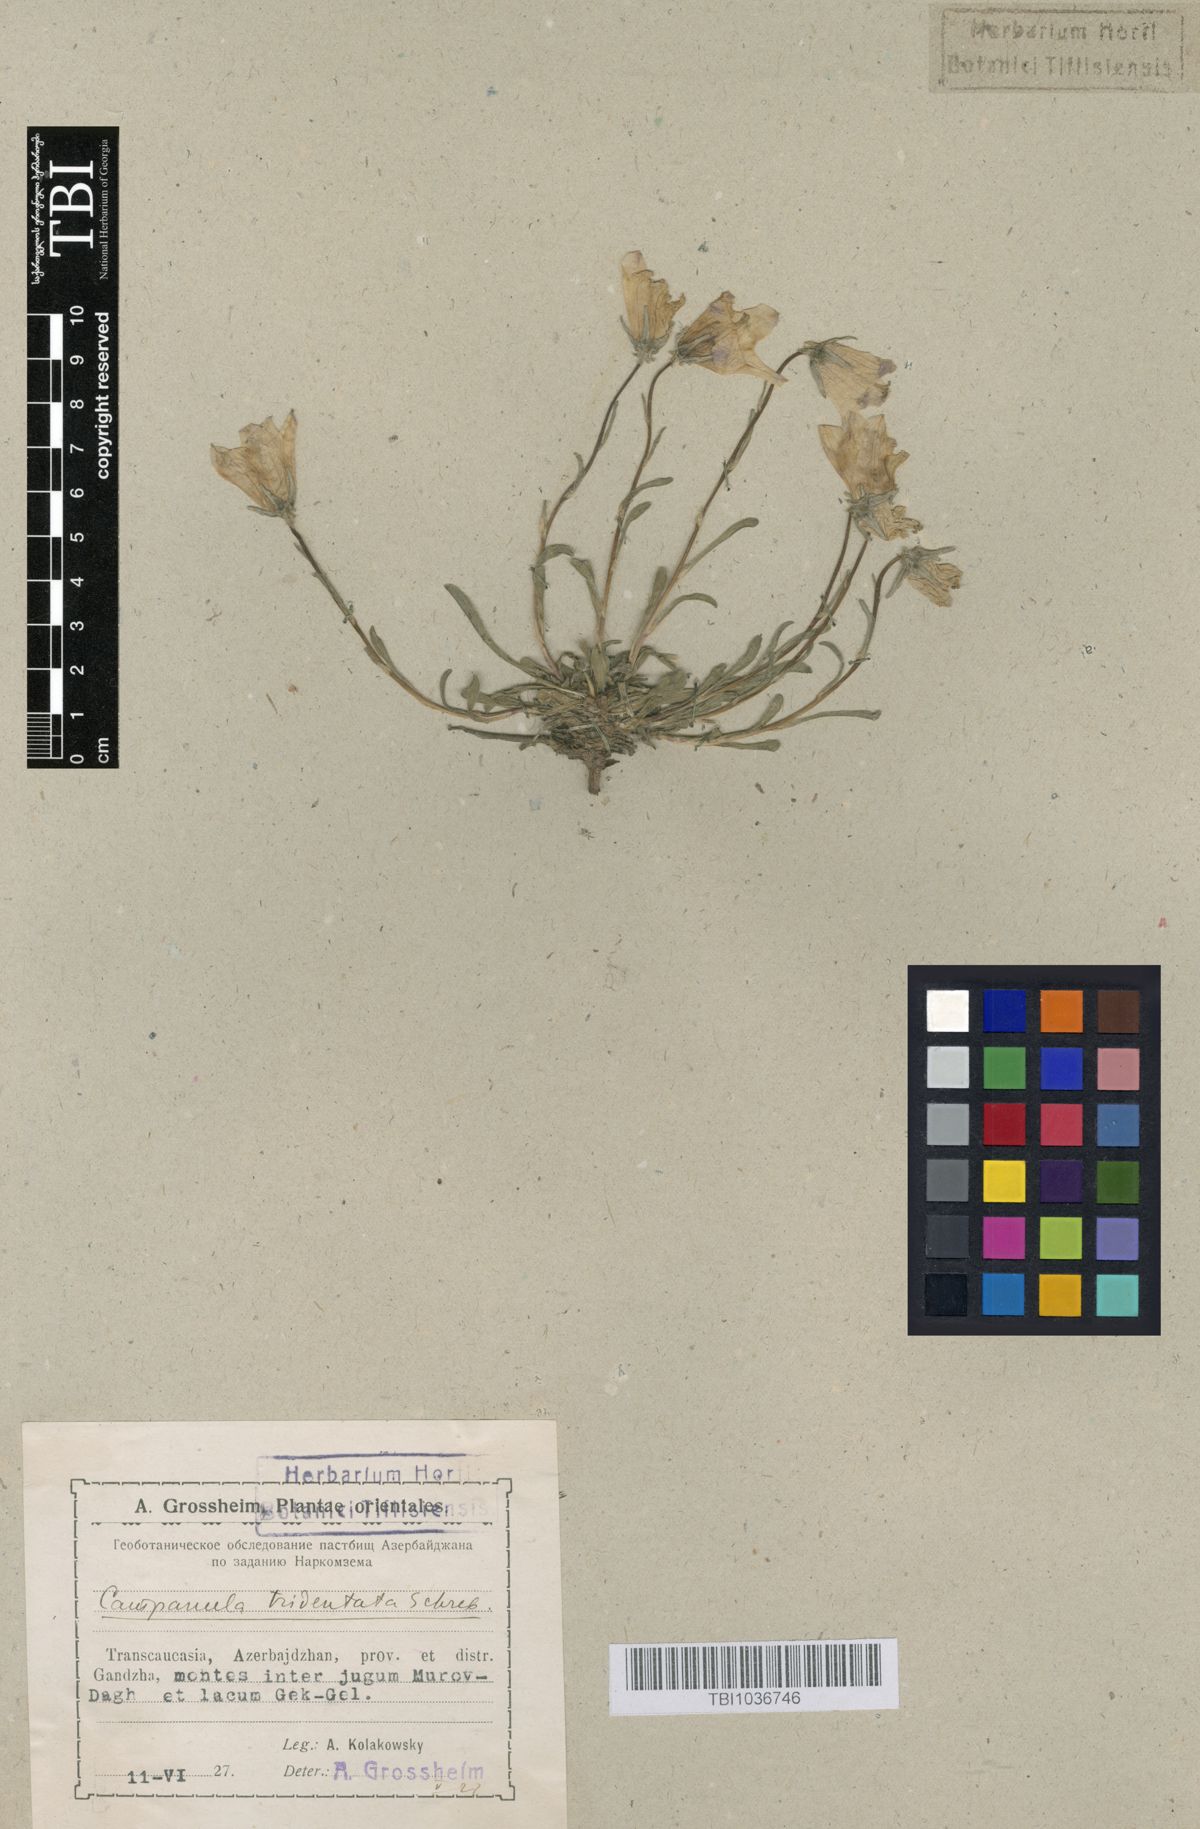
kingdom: Plantae
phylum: Tracheophyta
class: Magnoliopsida
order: Asterales
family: Campanulaceae
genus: Campanula
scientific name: Campanula tridentata
